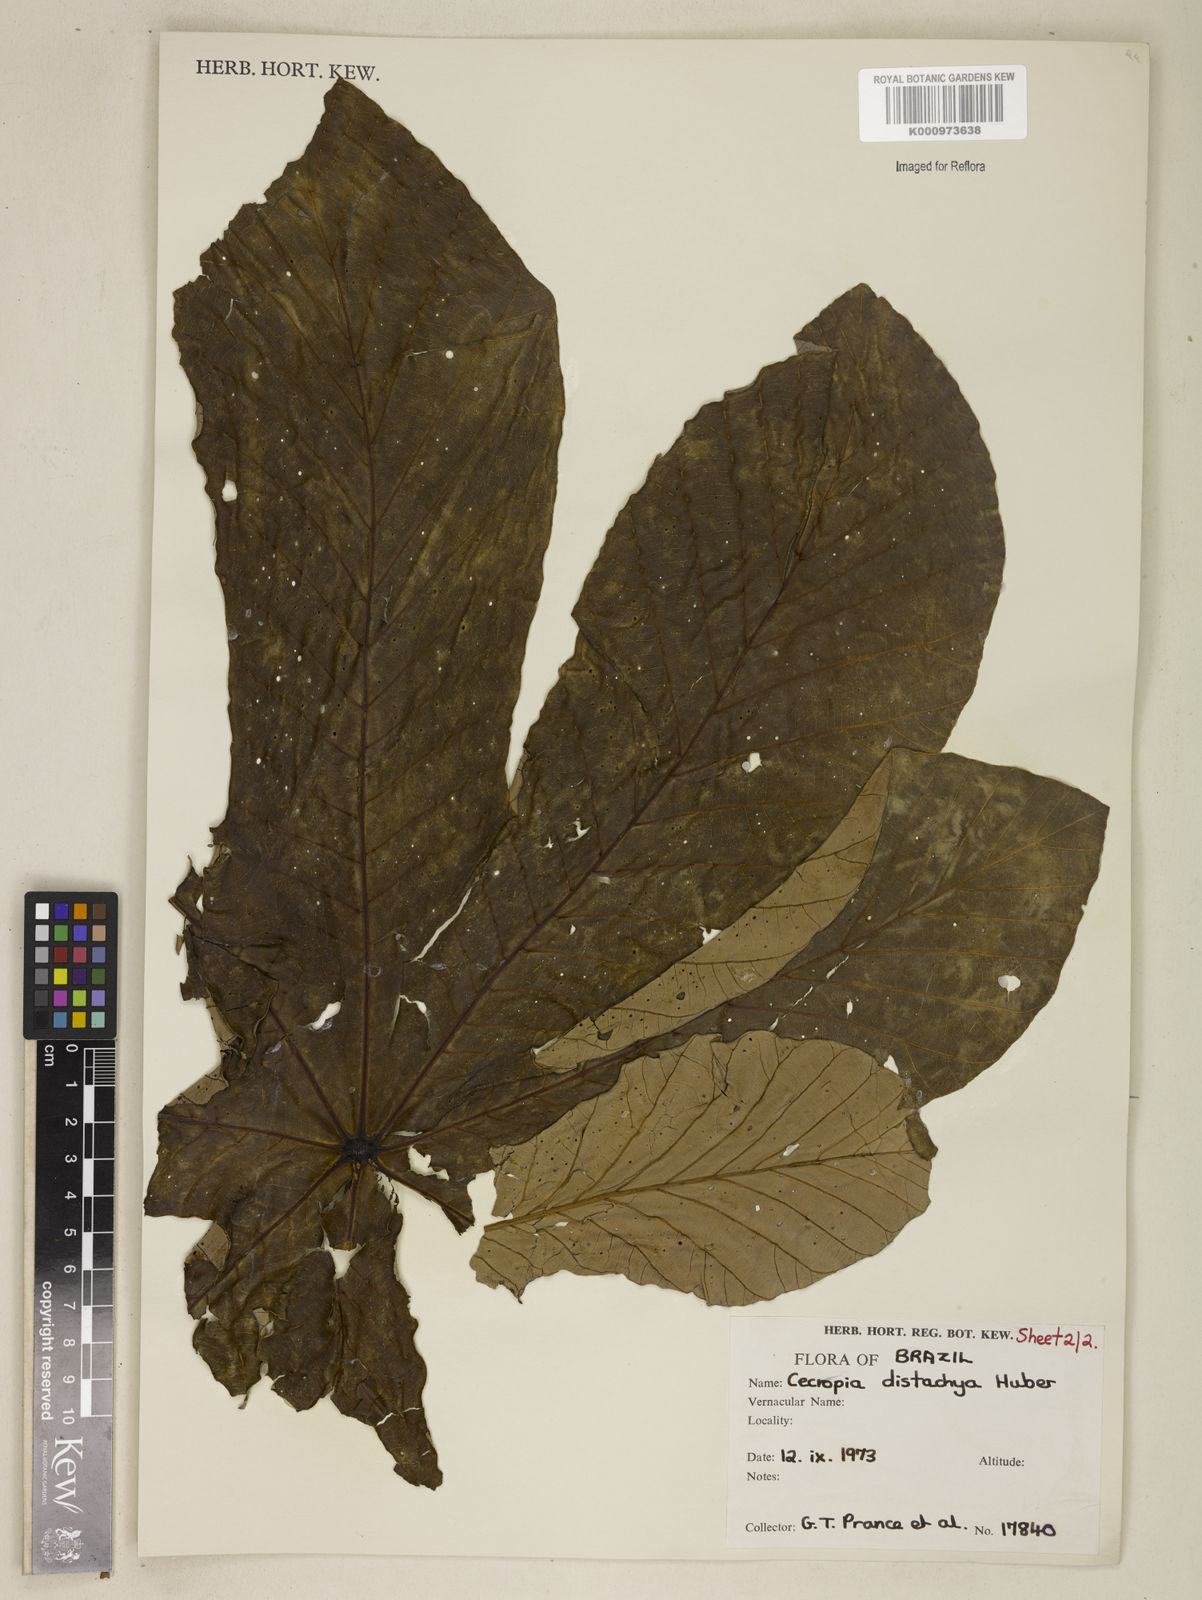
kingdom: Plantae
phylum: Tracheophyta
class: Magnoliopsida
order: Rosales
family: Urticaceae
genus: Cecropia
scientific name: Cecropia distachya
